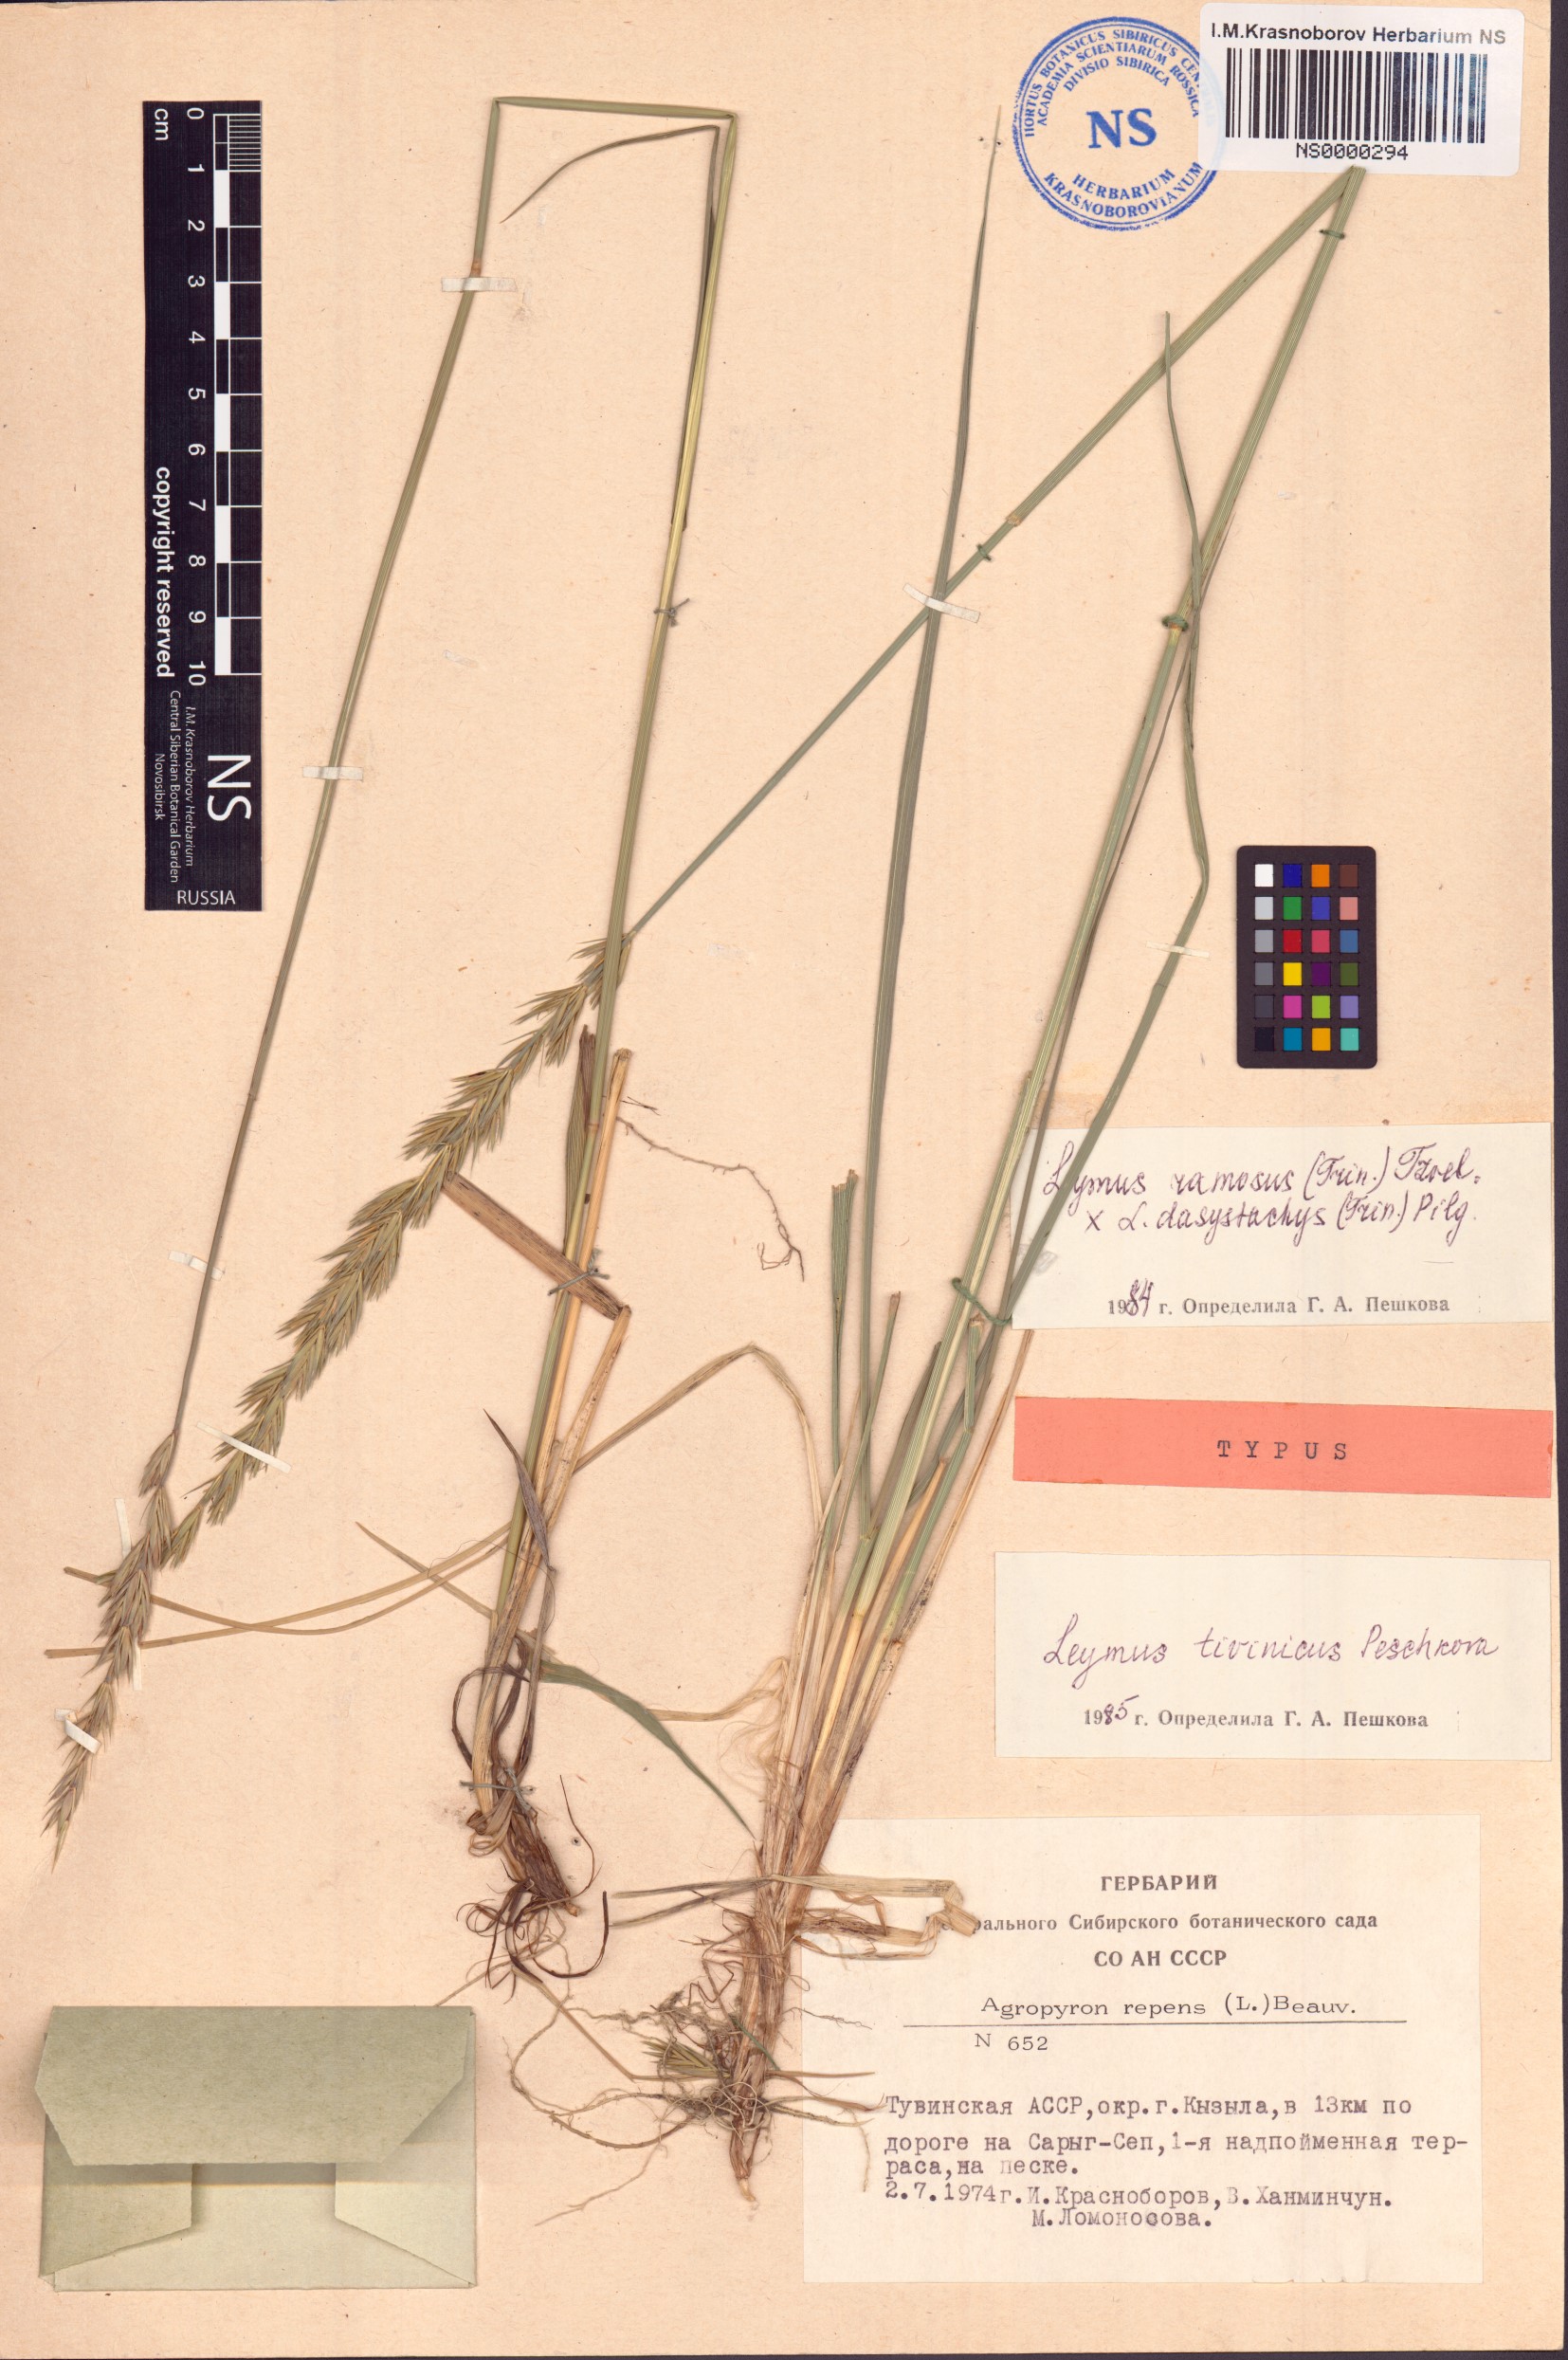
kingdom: Plantae
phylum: Tracheophyta
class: Liliopsida
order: Poales
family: Poaceae
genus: Leymus
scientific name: Leymus tuvinicus
